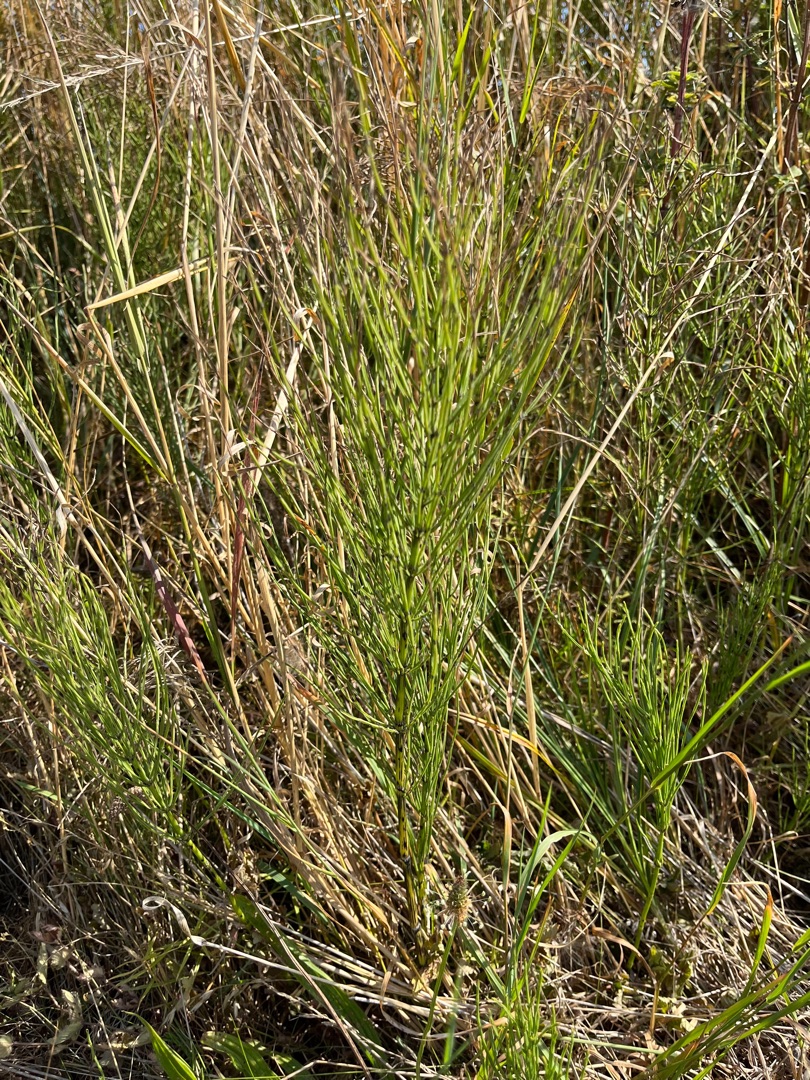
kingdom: Plantae
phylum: Tracheophyta
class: Polypodiopsida
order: Equisetales
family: Equisetaceae
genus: Equisetum
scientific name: Equisetum arvense
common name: Ager-padderok
